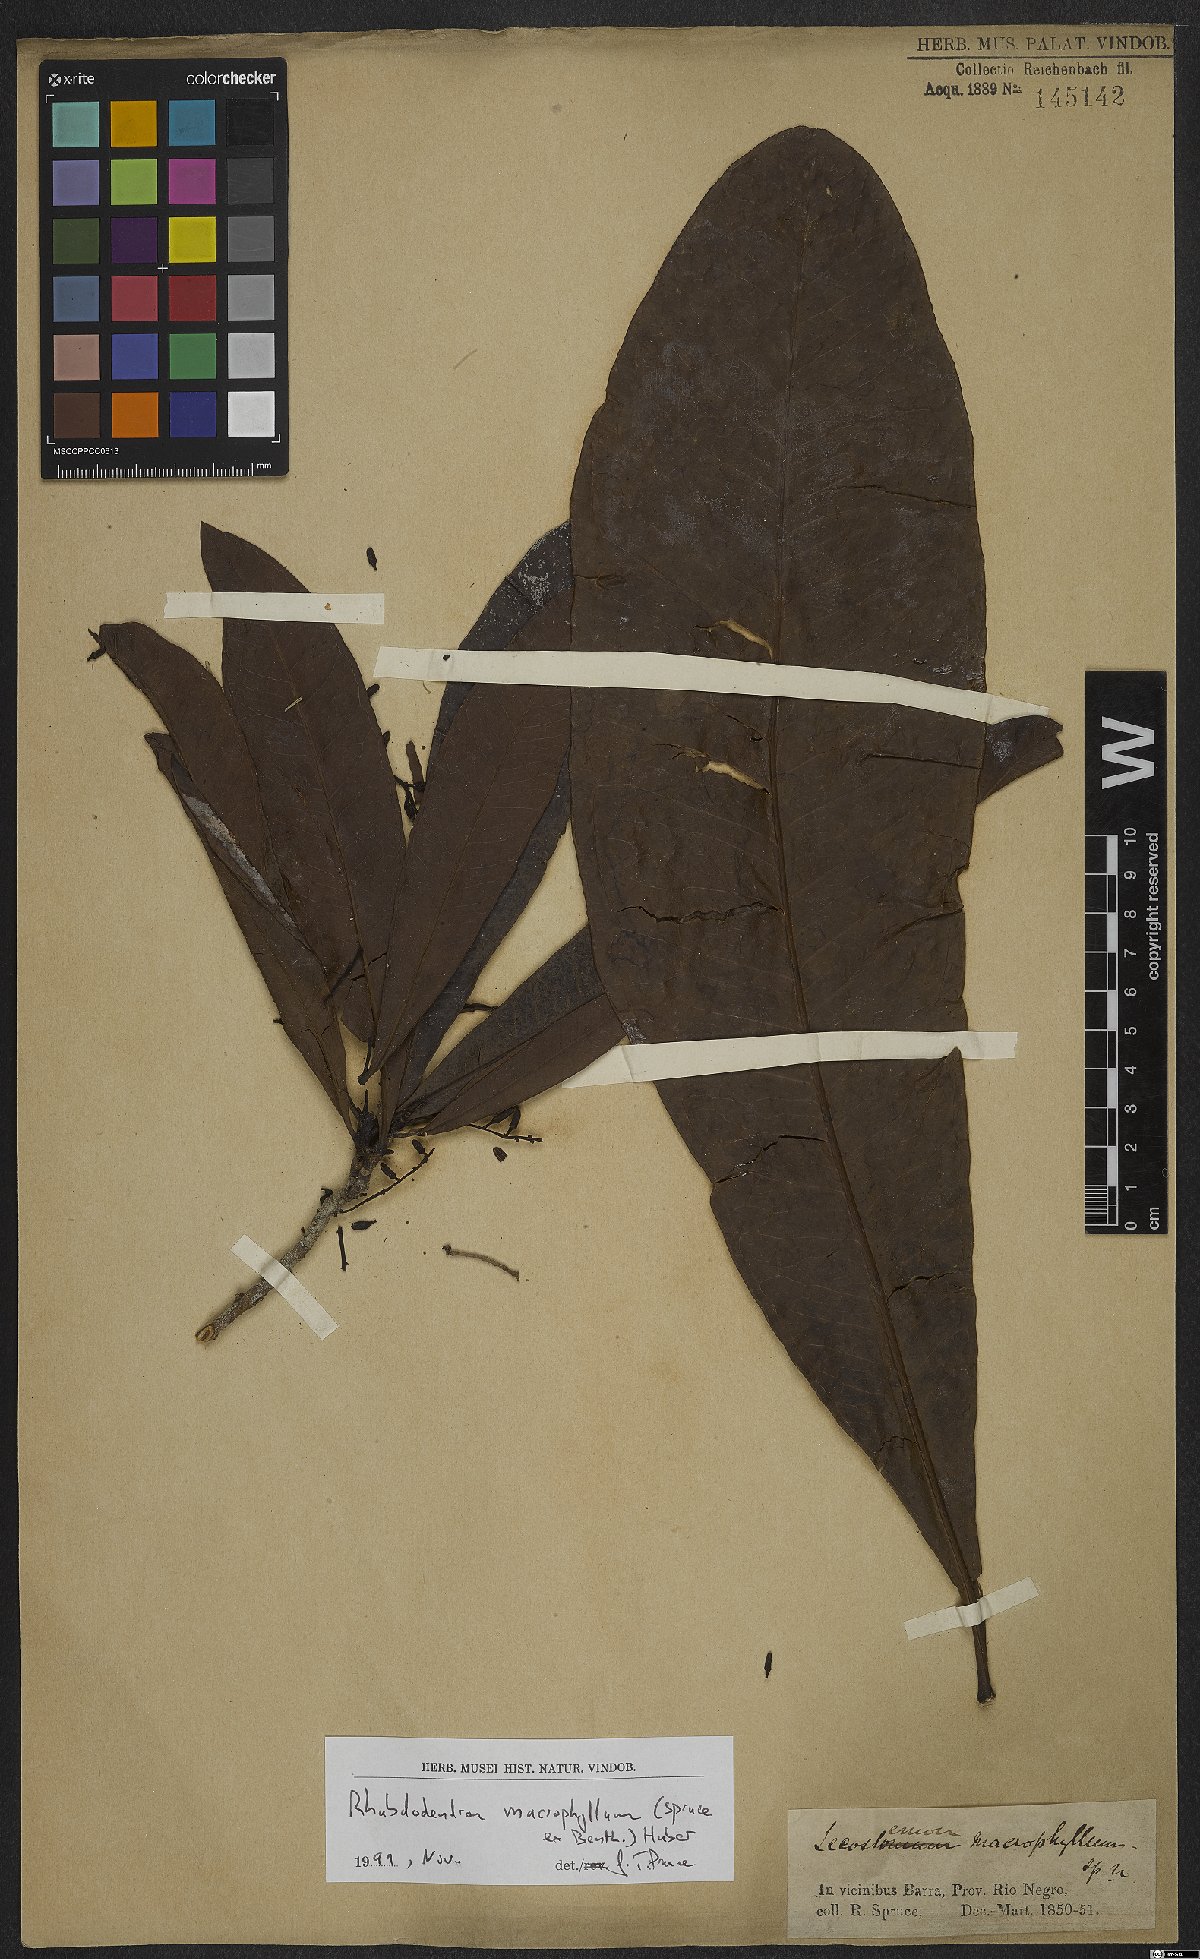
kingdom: Plantae
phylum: Tracheophyta
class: Magnoliopsida
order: Caryophyllales
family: Rhabdodendraceae
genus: Rhabdodendron
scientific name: Rhabdodendron macrophyllum
